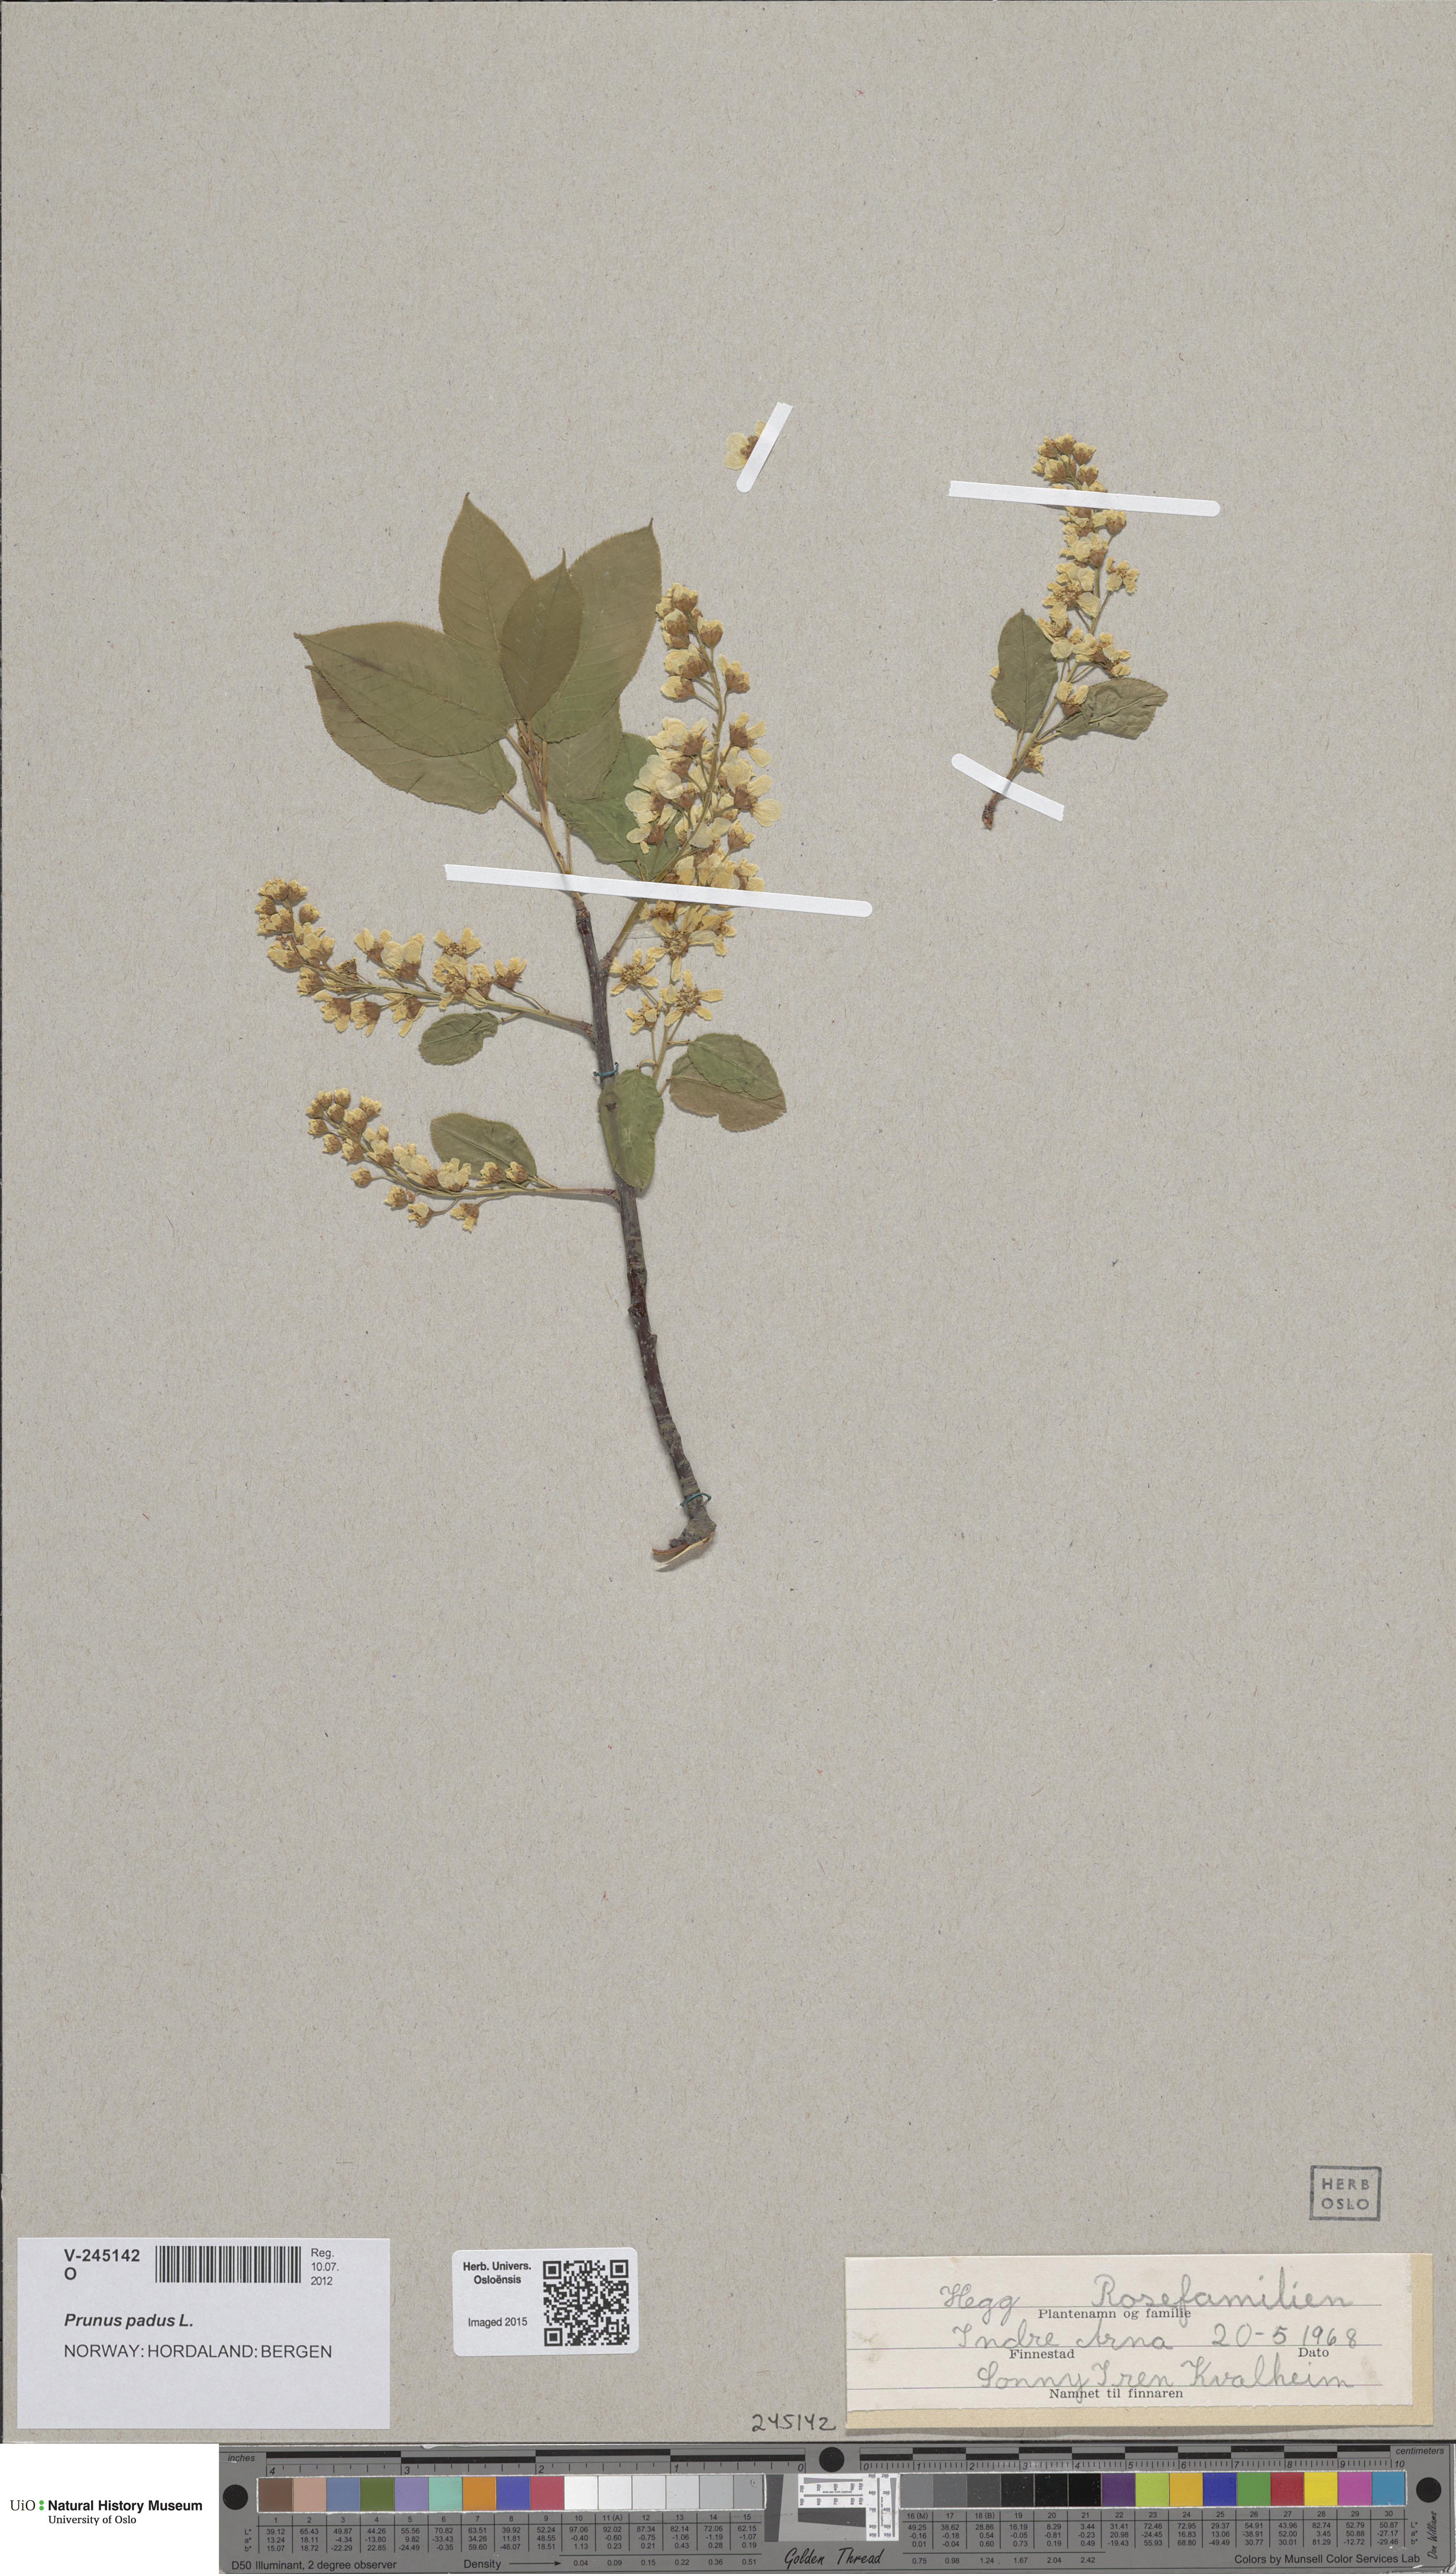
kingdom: Plantae
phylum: Tracheophyta
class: Magnoliopsida
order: Rosales
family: Rosaceae
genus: Prunus
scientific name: Prunus padus
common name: Bird cherry
